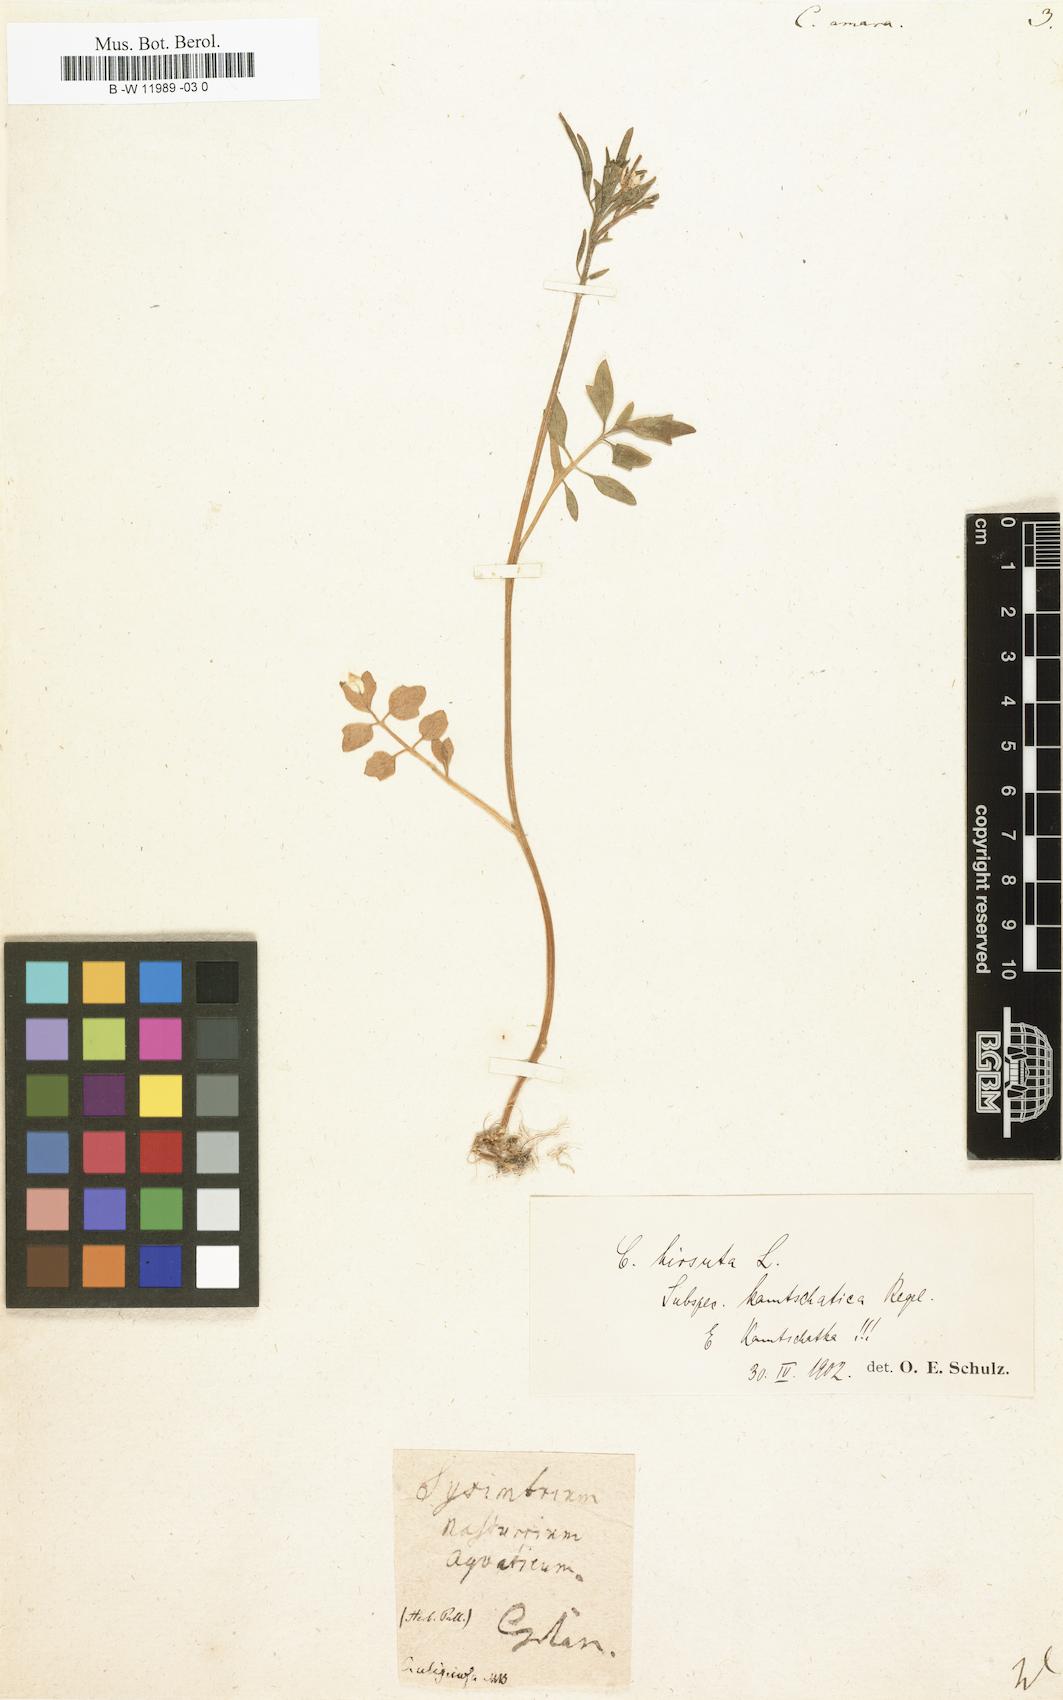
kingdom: Plantae
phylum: Tracheophyta
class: Magnoliopsida
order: Brassicales
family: Brassicaceae
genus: Cardamine
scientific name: Cardamine amara
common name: Large bitter-cress
